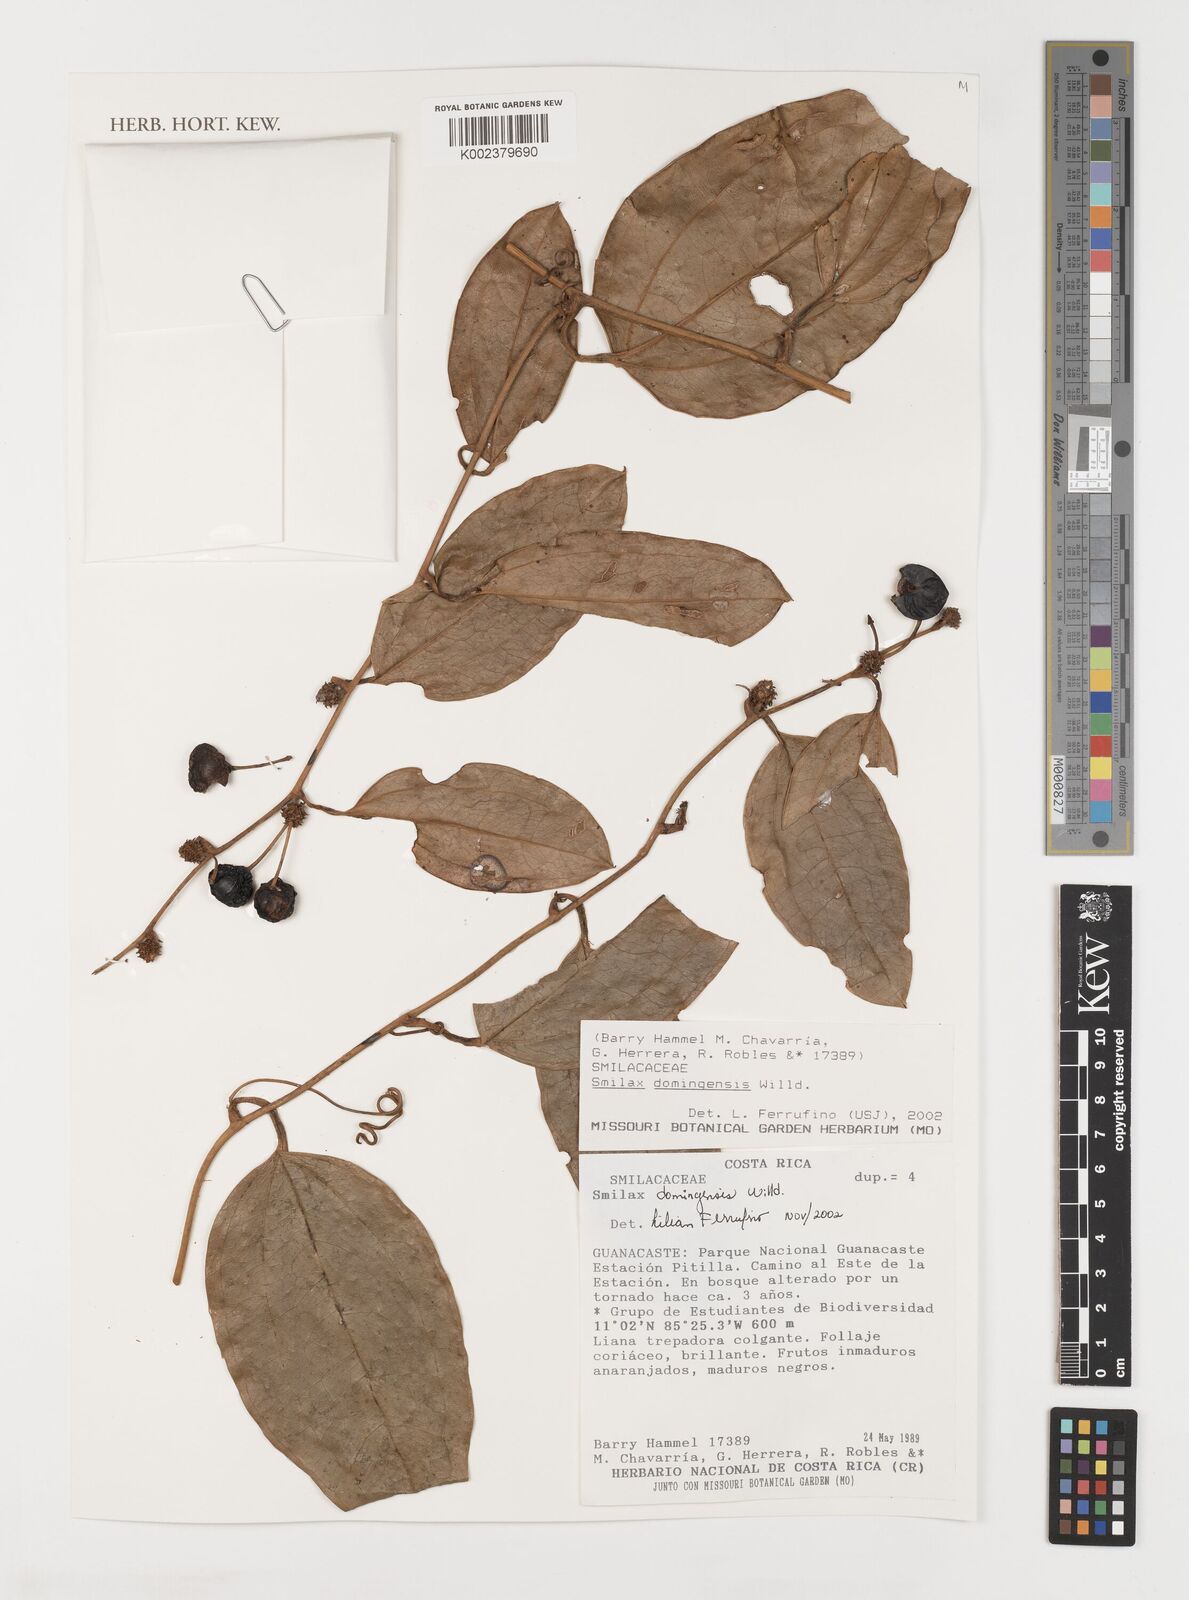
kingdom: Plantae
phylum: Tracheophyta
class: Liliopsida
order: Liliales
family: Smilacaceae
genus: Smilax
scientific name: Smilax domingensis
